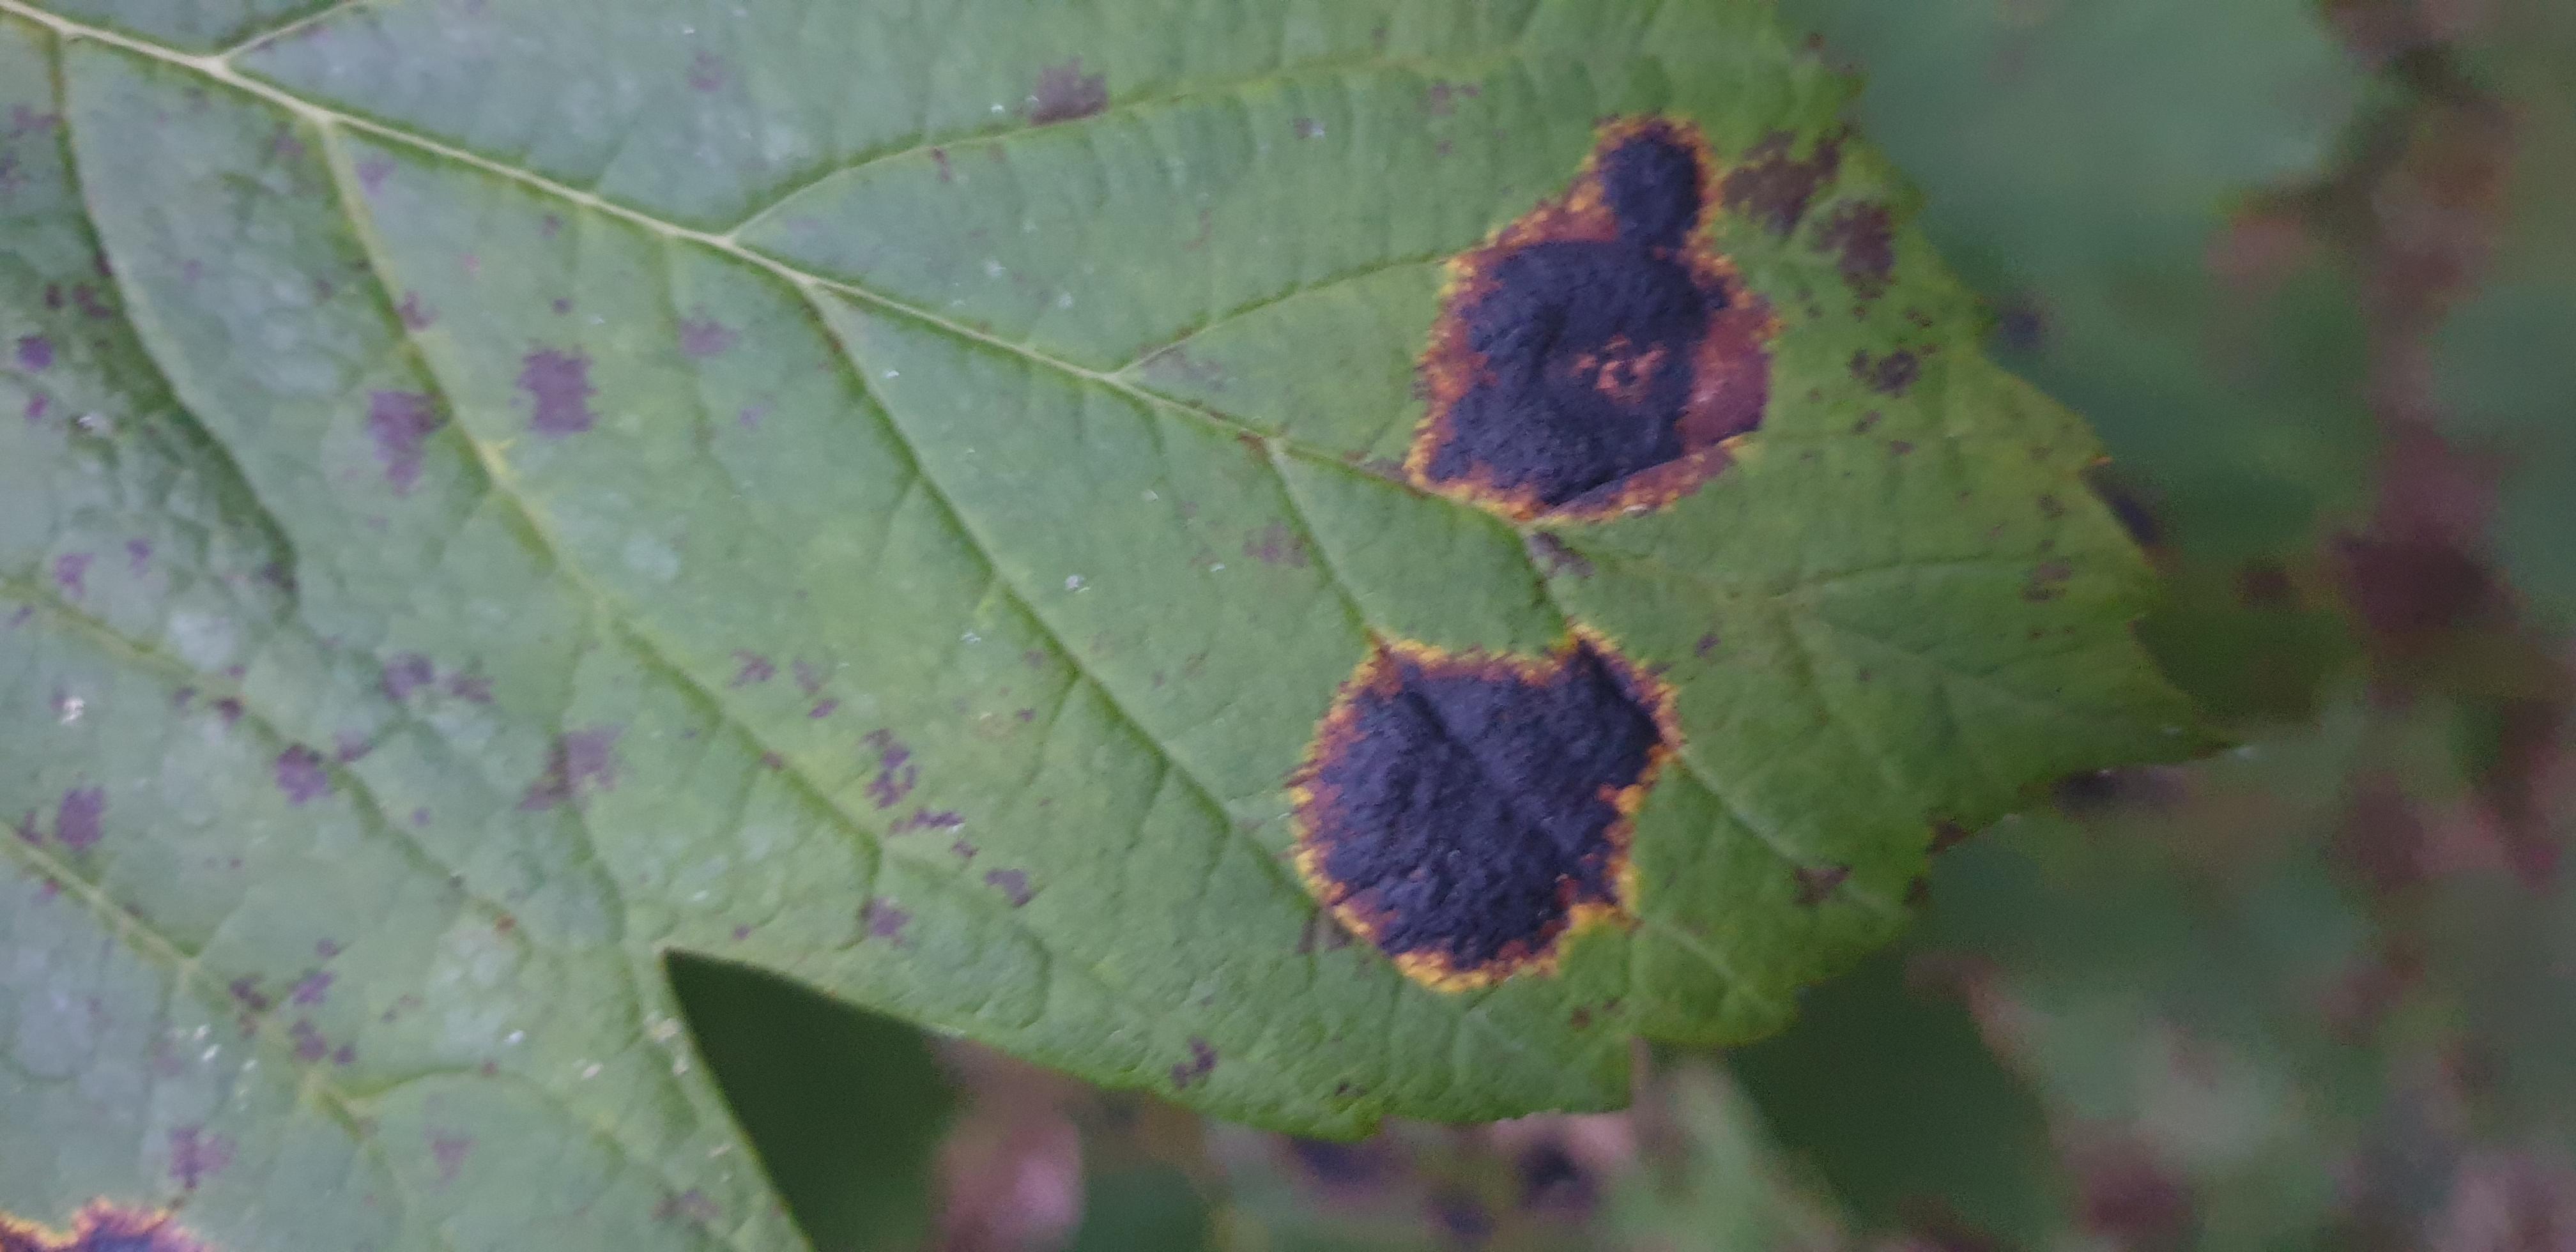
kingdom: Fungi
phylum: Ascomycota
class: Leotiomycetes
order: Rhytismatales
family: Rhytismataceae
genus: Rhytisma
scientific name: Rhytisma acerinum
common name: ahorn-rynkeplet
